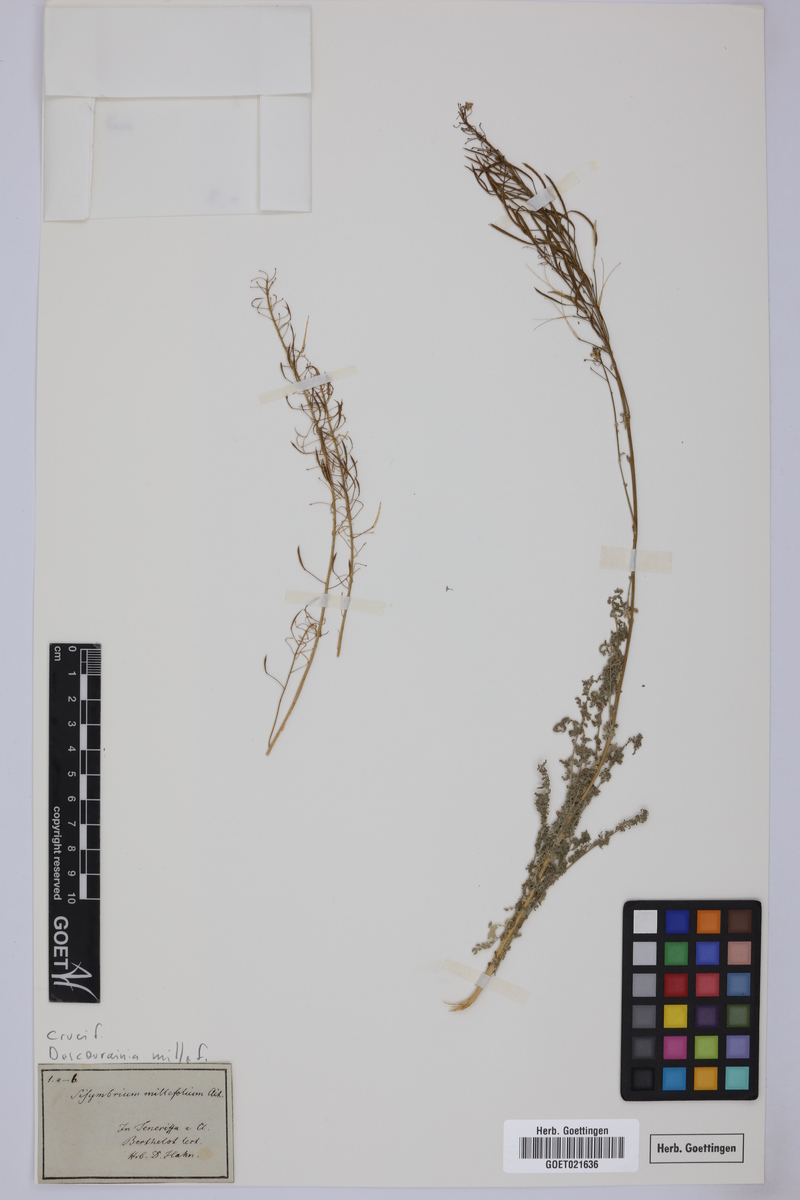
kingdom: Plantae
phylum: Tracheophyta
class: Magnoliopsida
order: Brassicales
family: Brassicaceae
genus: Descurainia
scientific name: Descurainia millefolia
